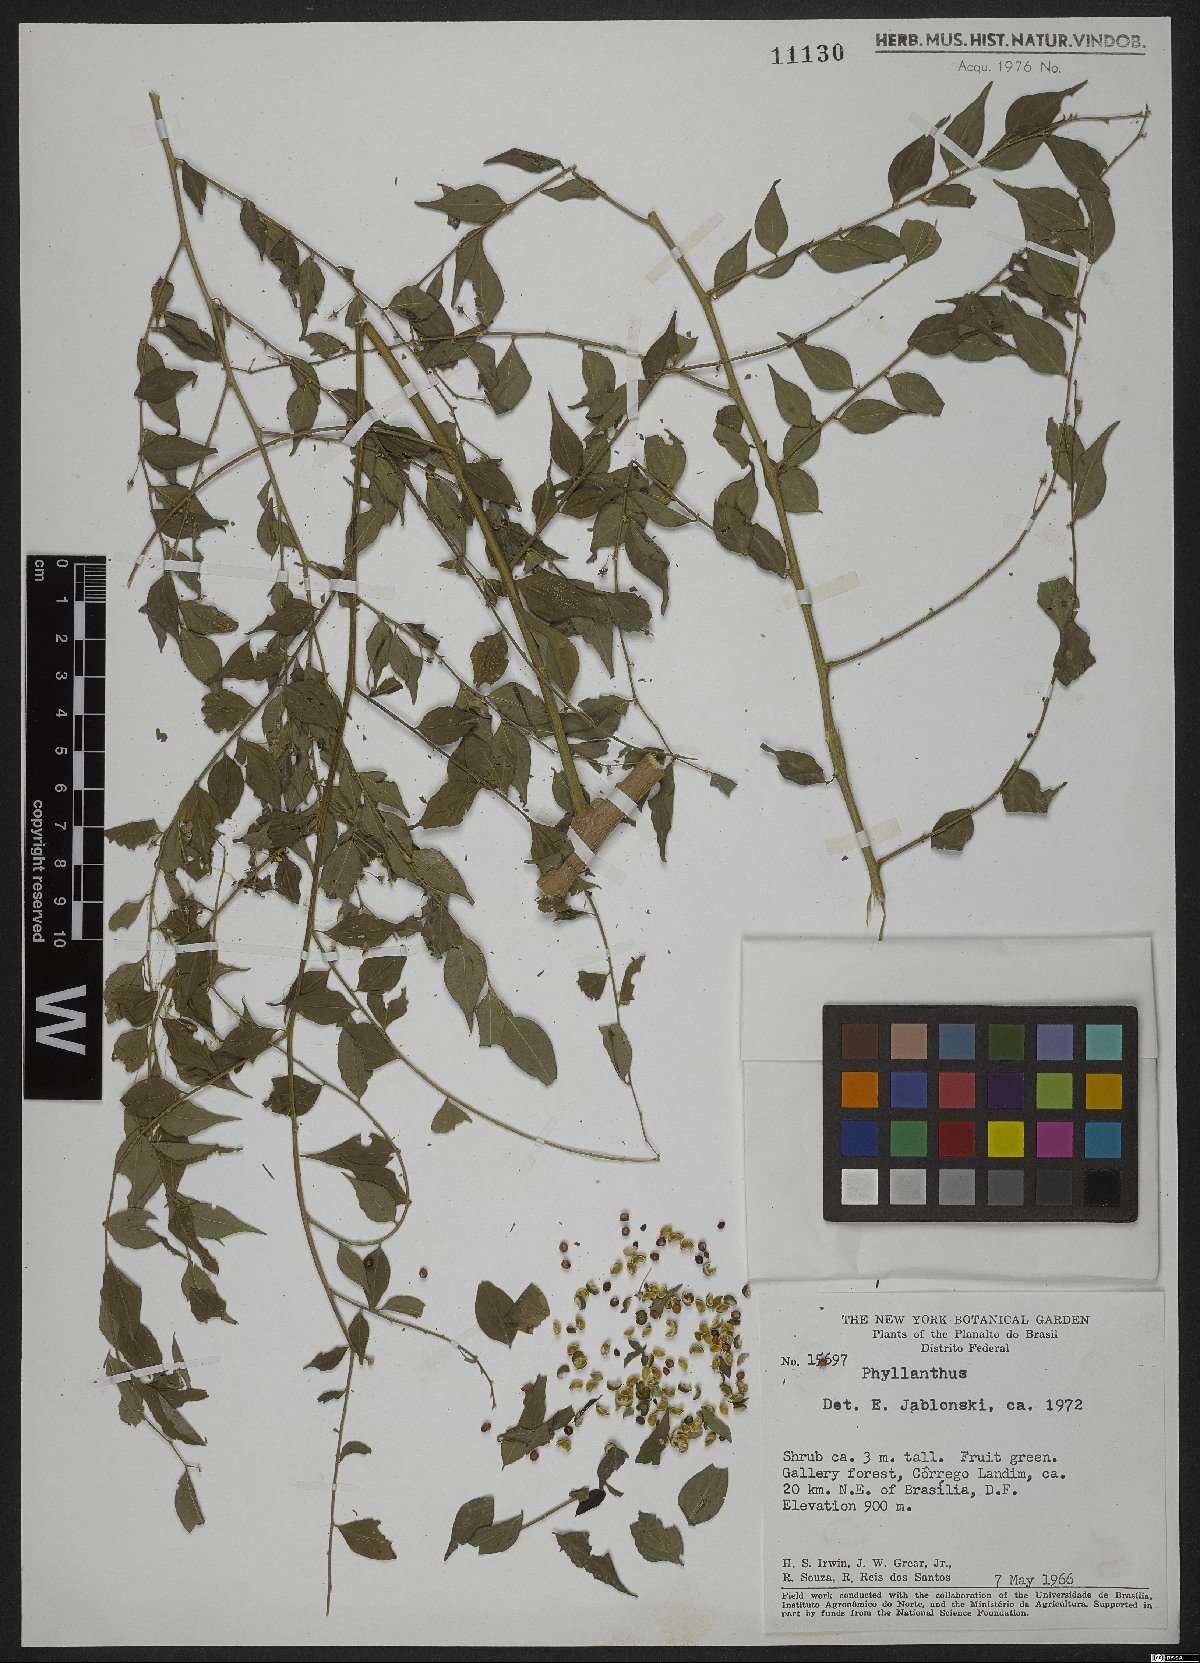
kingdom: Plantae
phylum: Tracheophyta
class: Magnoliopsida
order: Malpighiales
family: Phyllanthaceae
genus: Phyllanthus
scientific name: Phyllanthus
